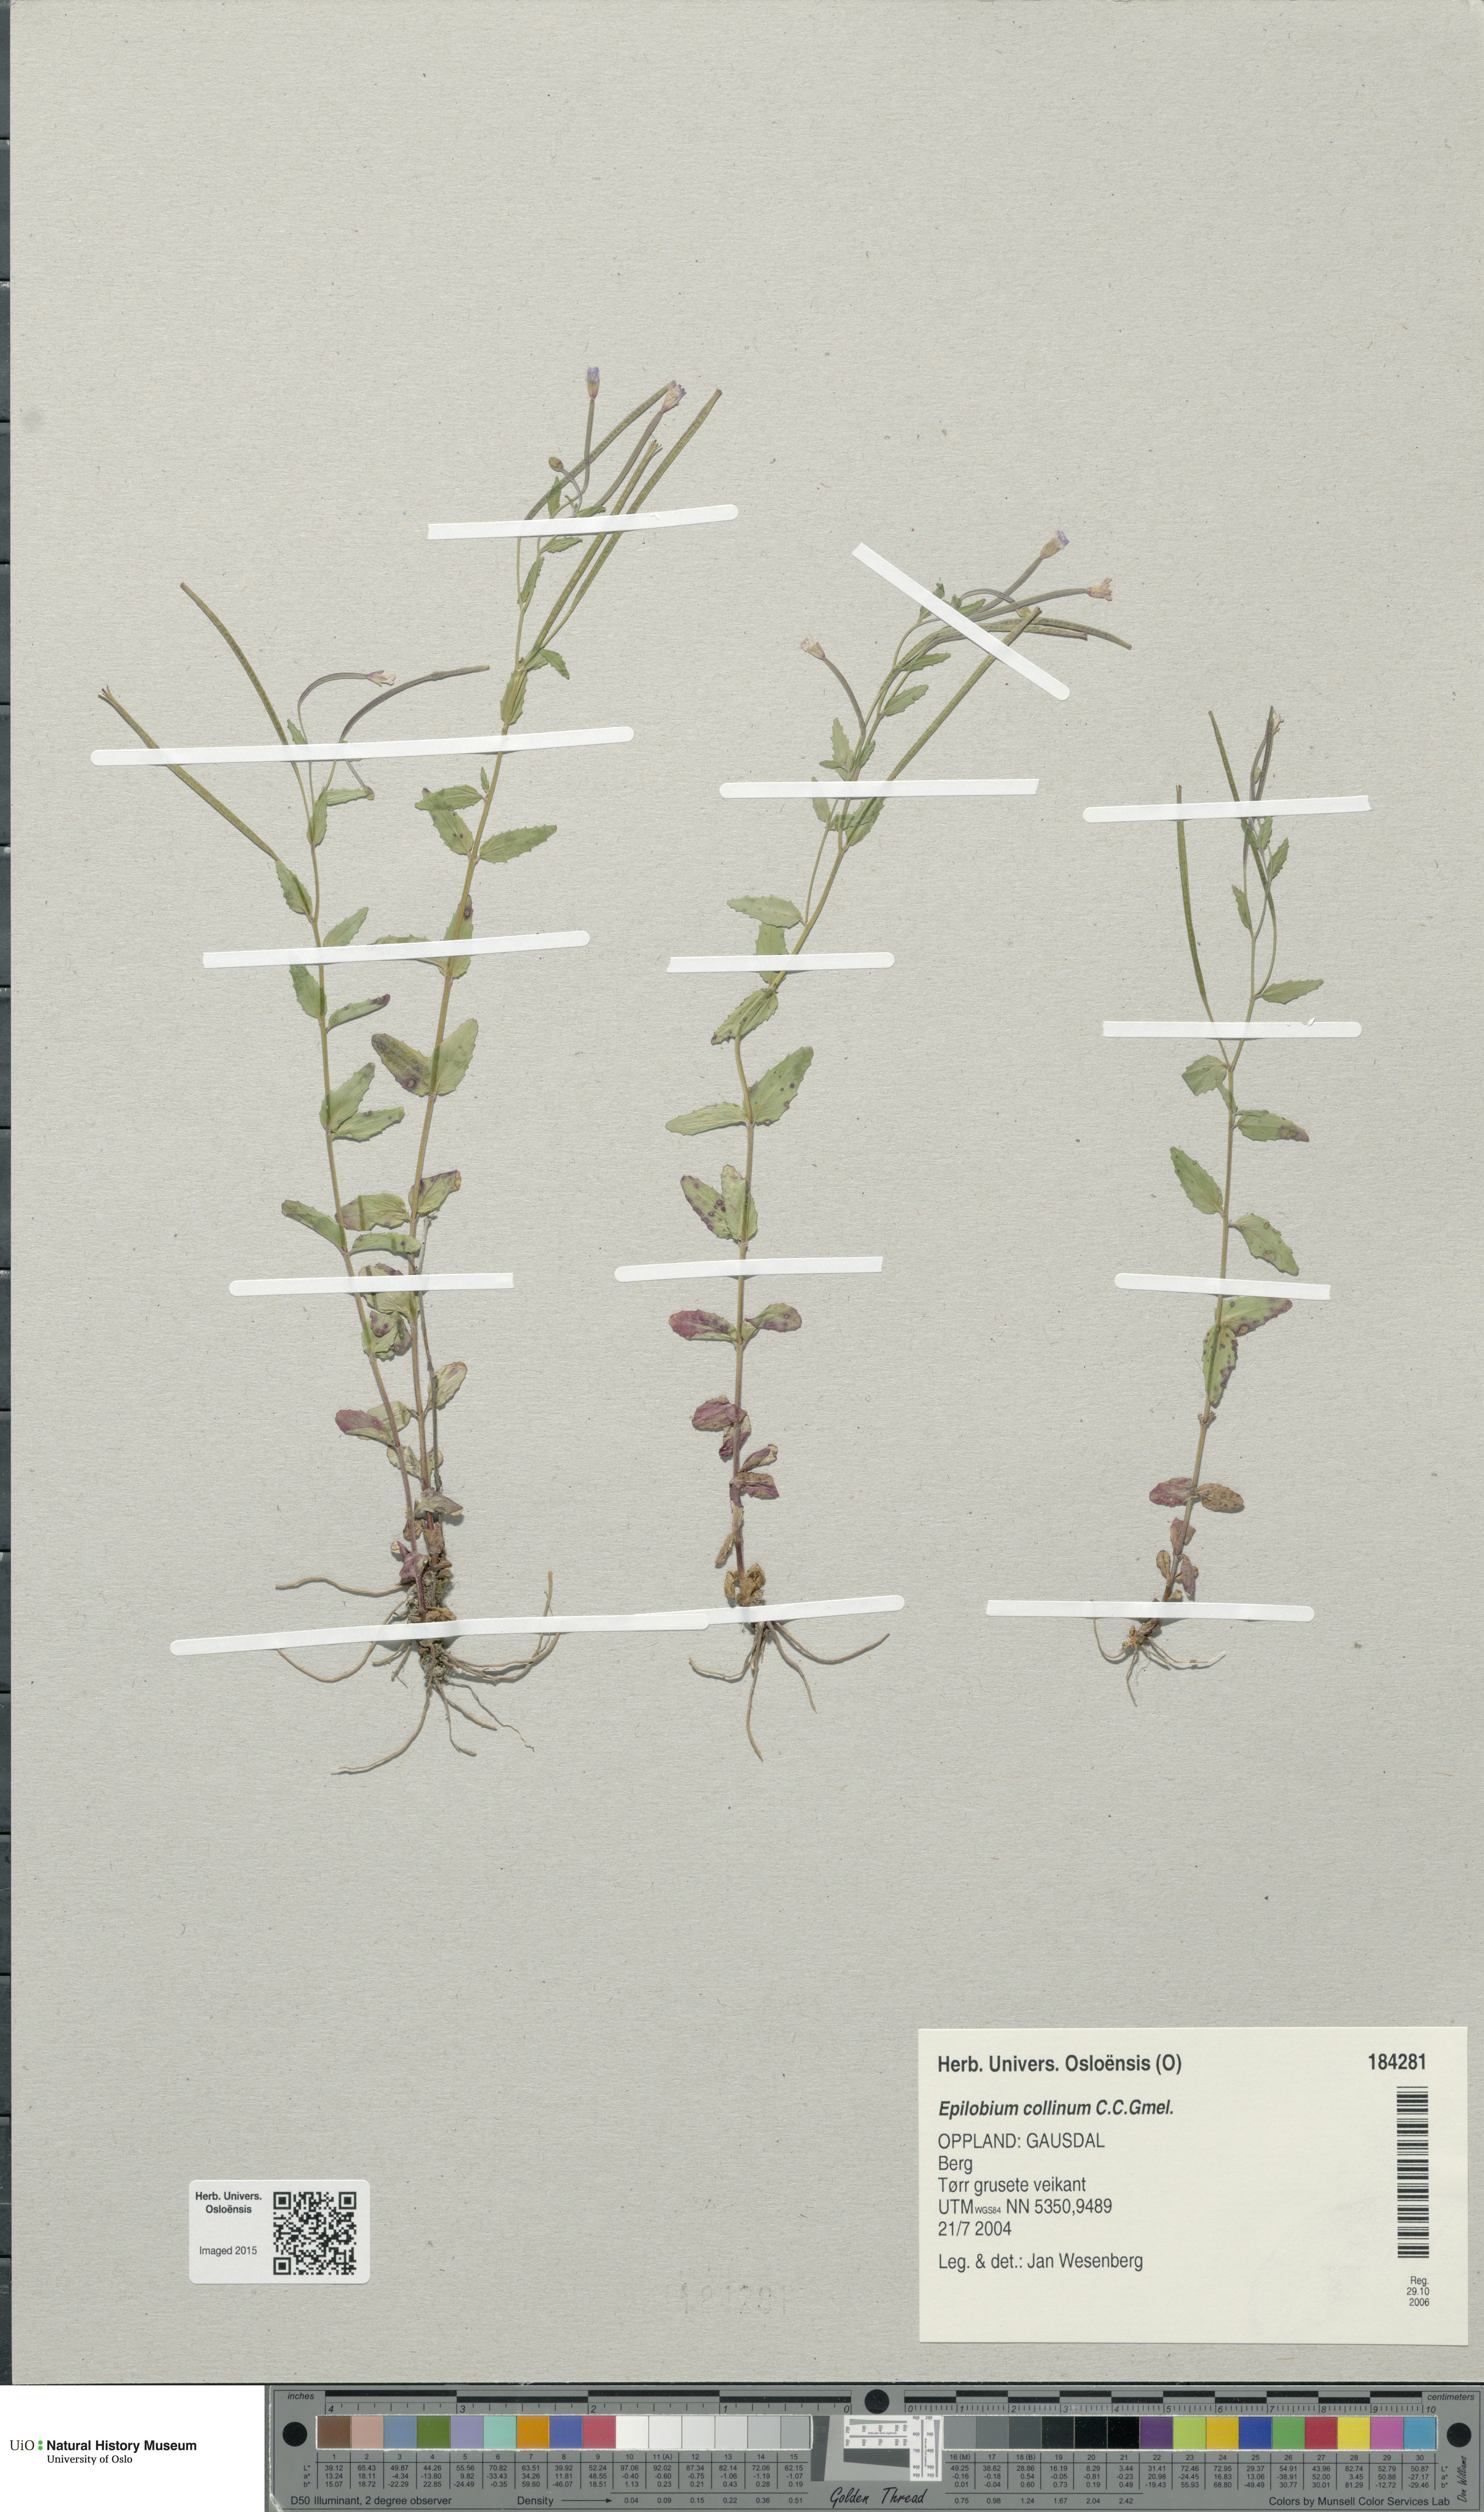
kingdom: Plantae
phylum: Tracheophyta
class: Magnoliopsida
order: Myrtales
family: Onagraceae
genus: Epilobium
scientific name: Epilobium collinum
